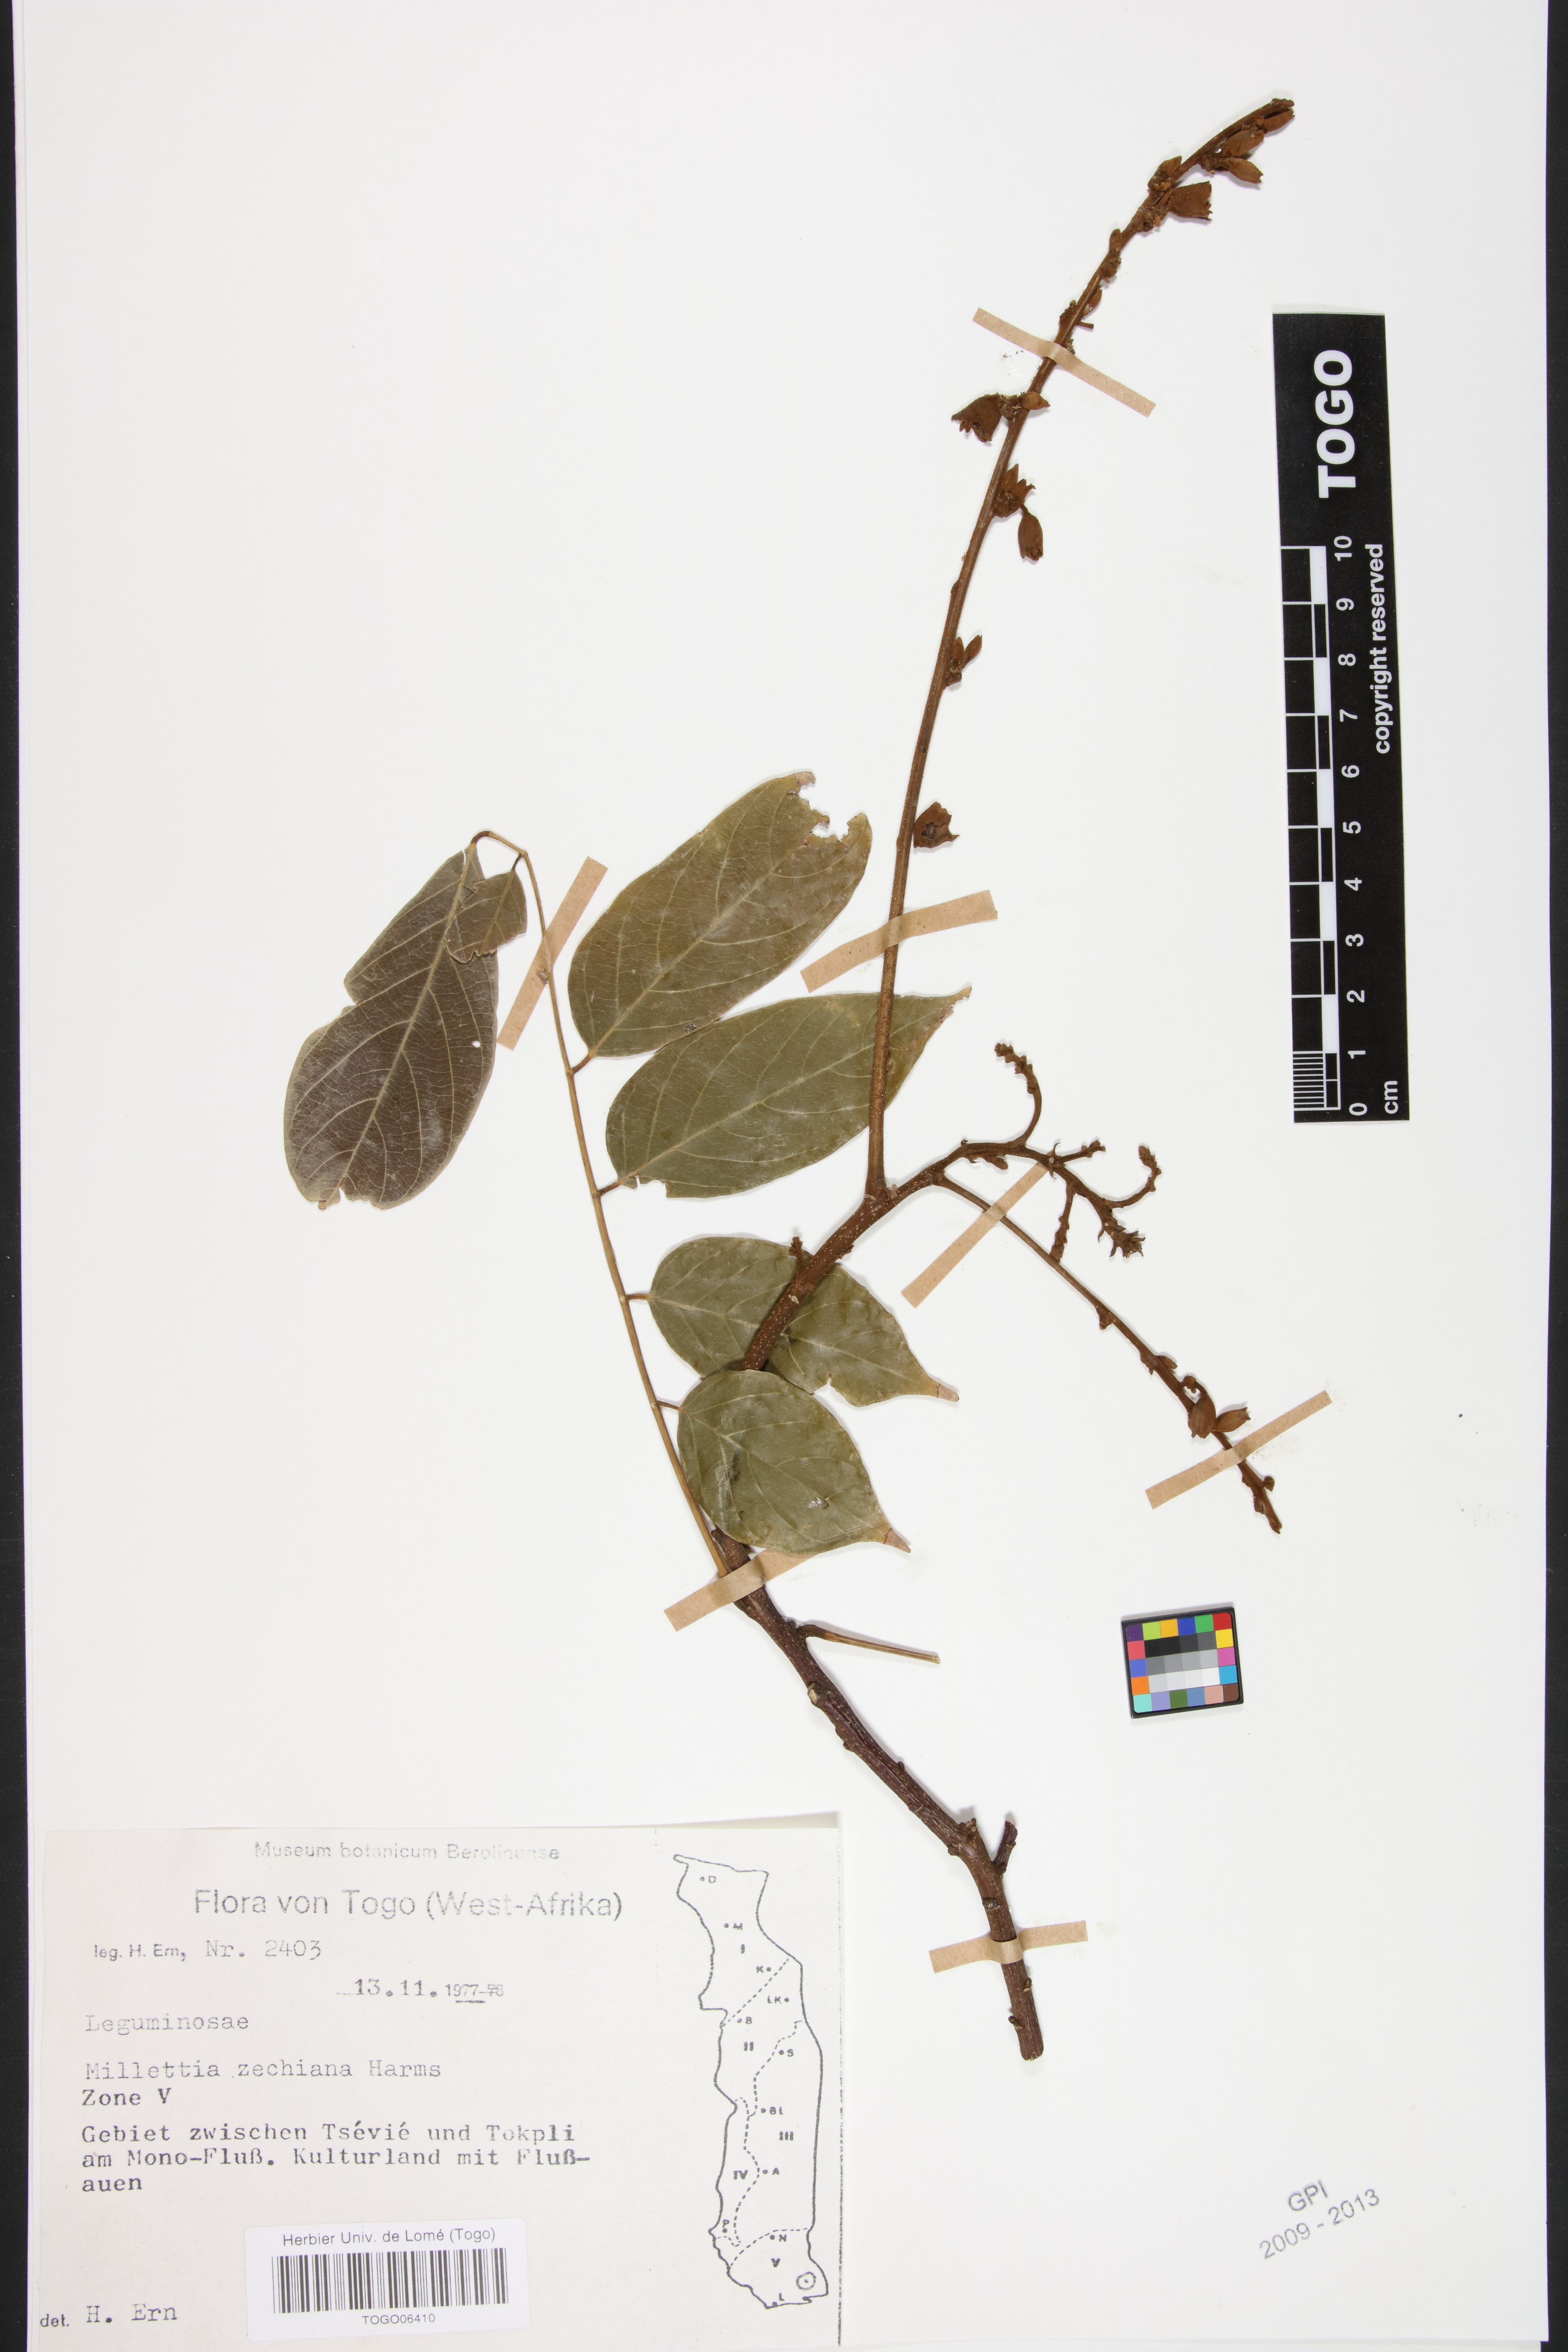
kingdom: Plantae
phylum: Tracheophyta
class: Magnoliopsida
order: Fabales
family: Fabaceae
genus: Millettia
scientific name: Millettia zechiana
